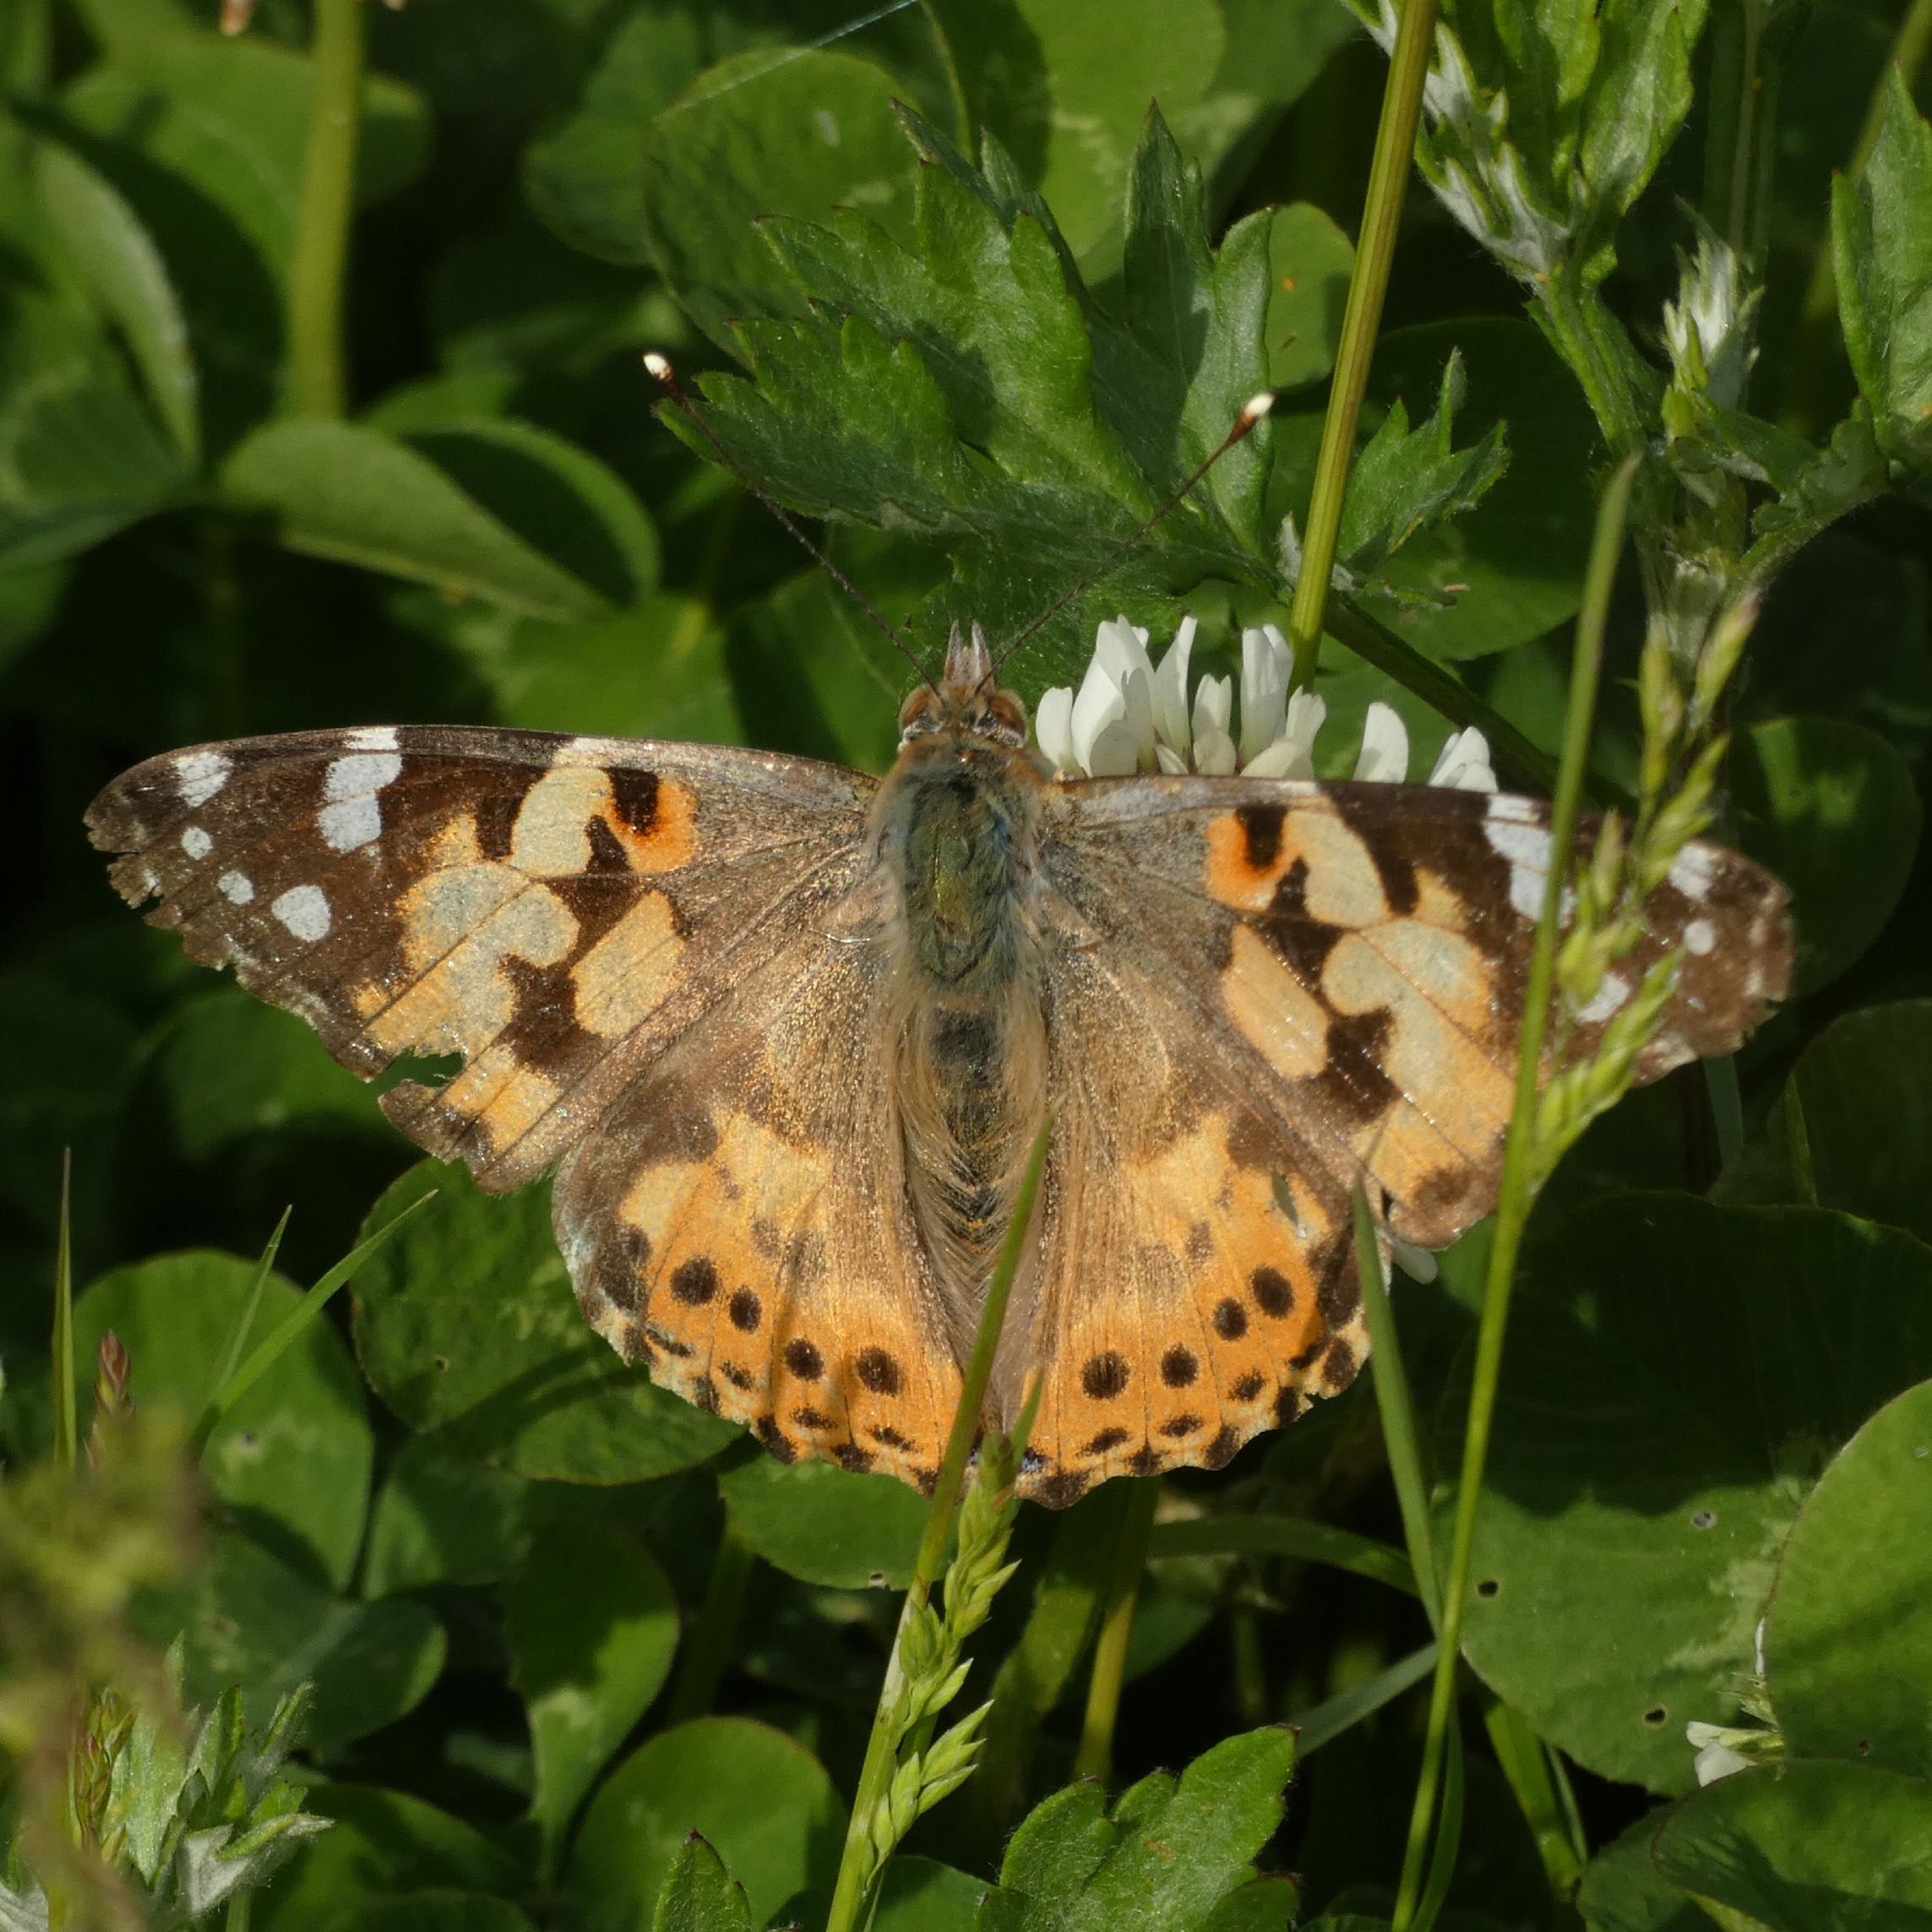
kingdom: Animalia
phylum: Arthropoda
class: Insecta
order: Lepidoptera
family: Nymphalidae
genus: Vanessa
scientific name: Vanessa cardui
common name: Tidselsommerfugl
